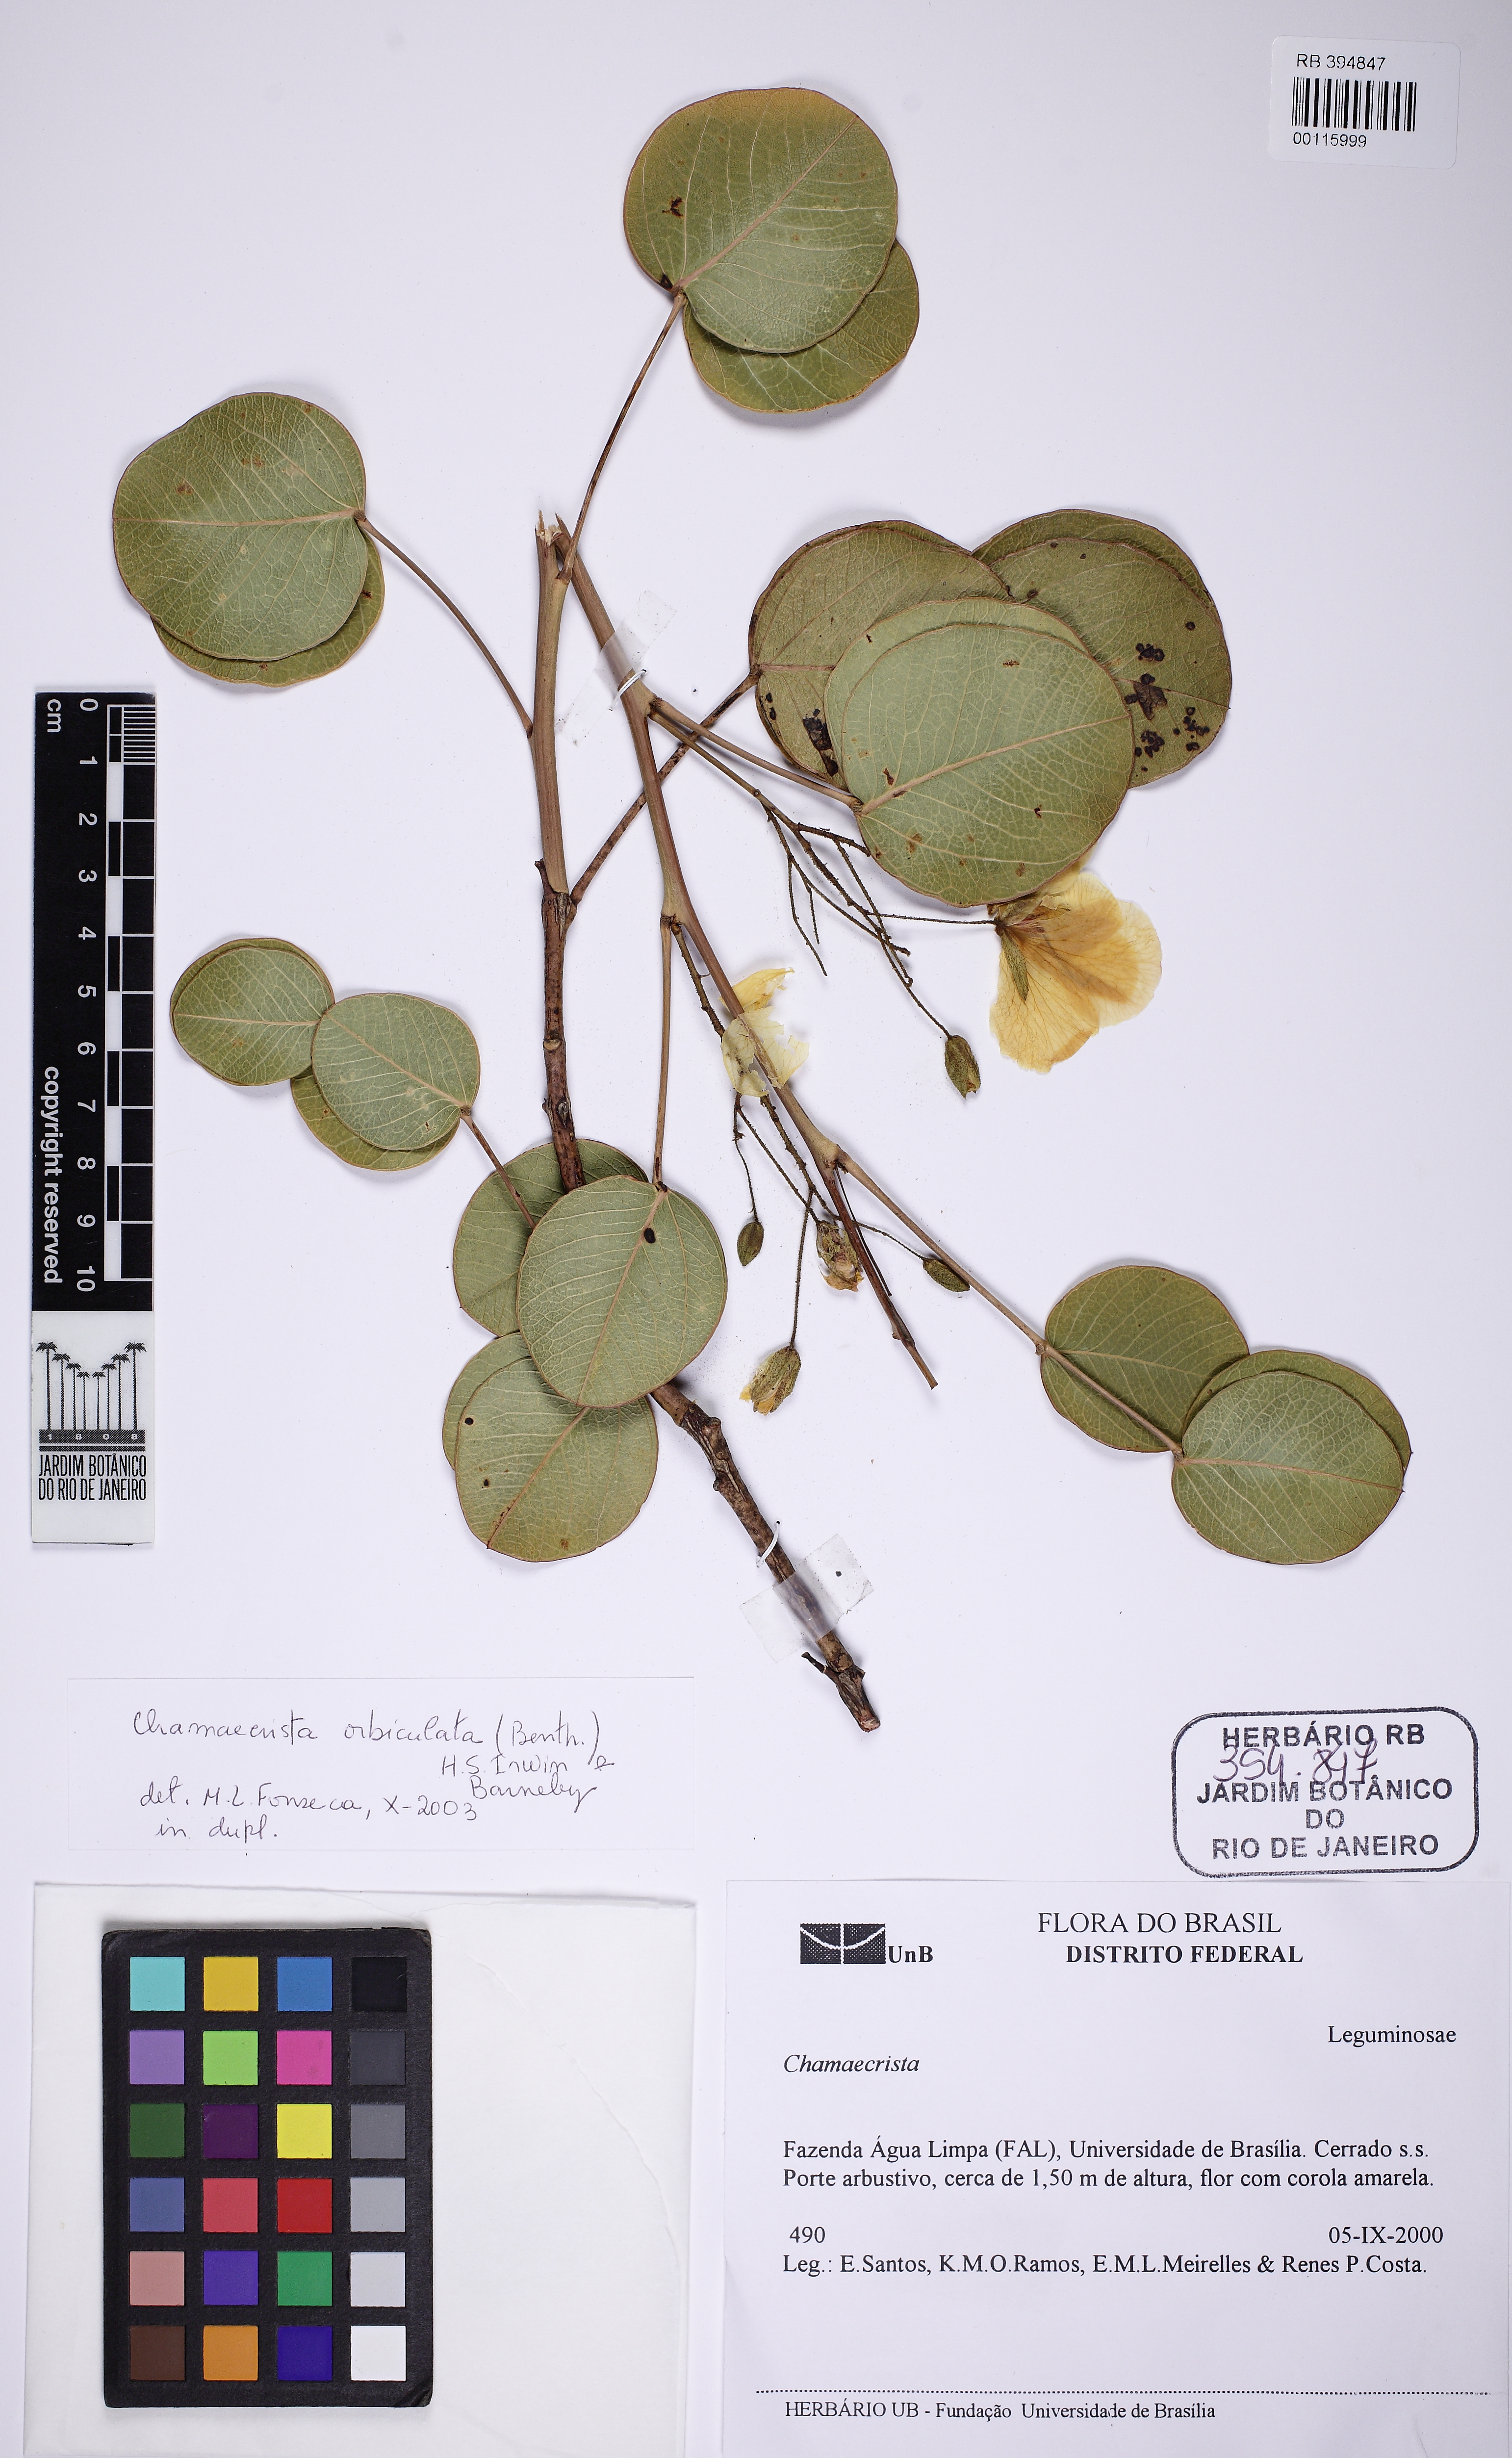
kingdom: Plantae
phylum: Tracheophyta
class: Magnoliopsida
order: Fabales
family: Fabaceae
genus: Chamaecrista
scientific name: Chamaecrista orbiculata
